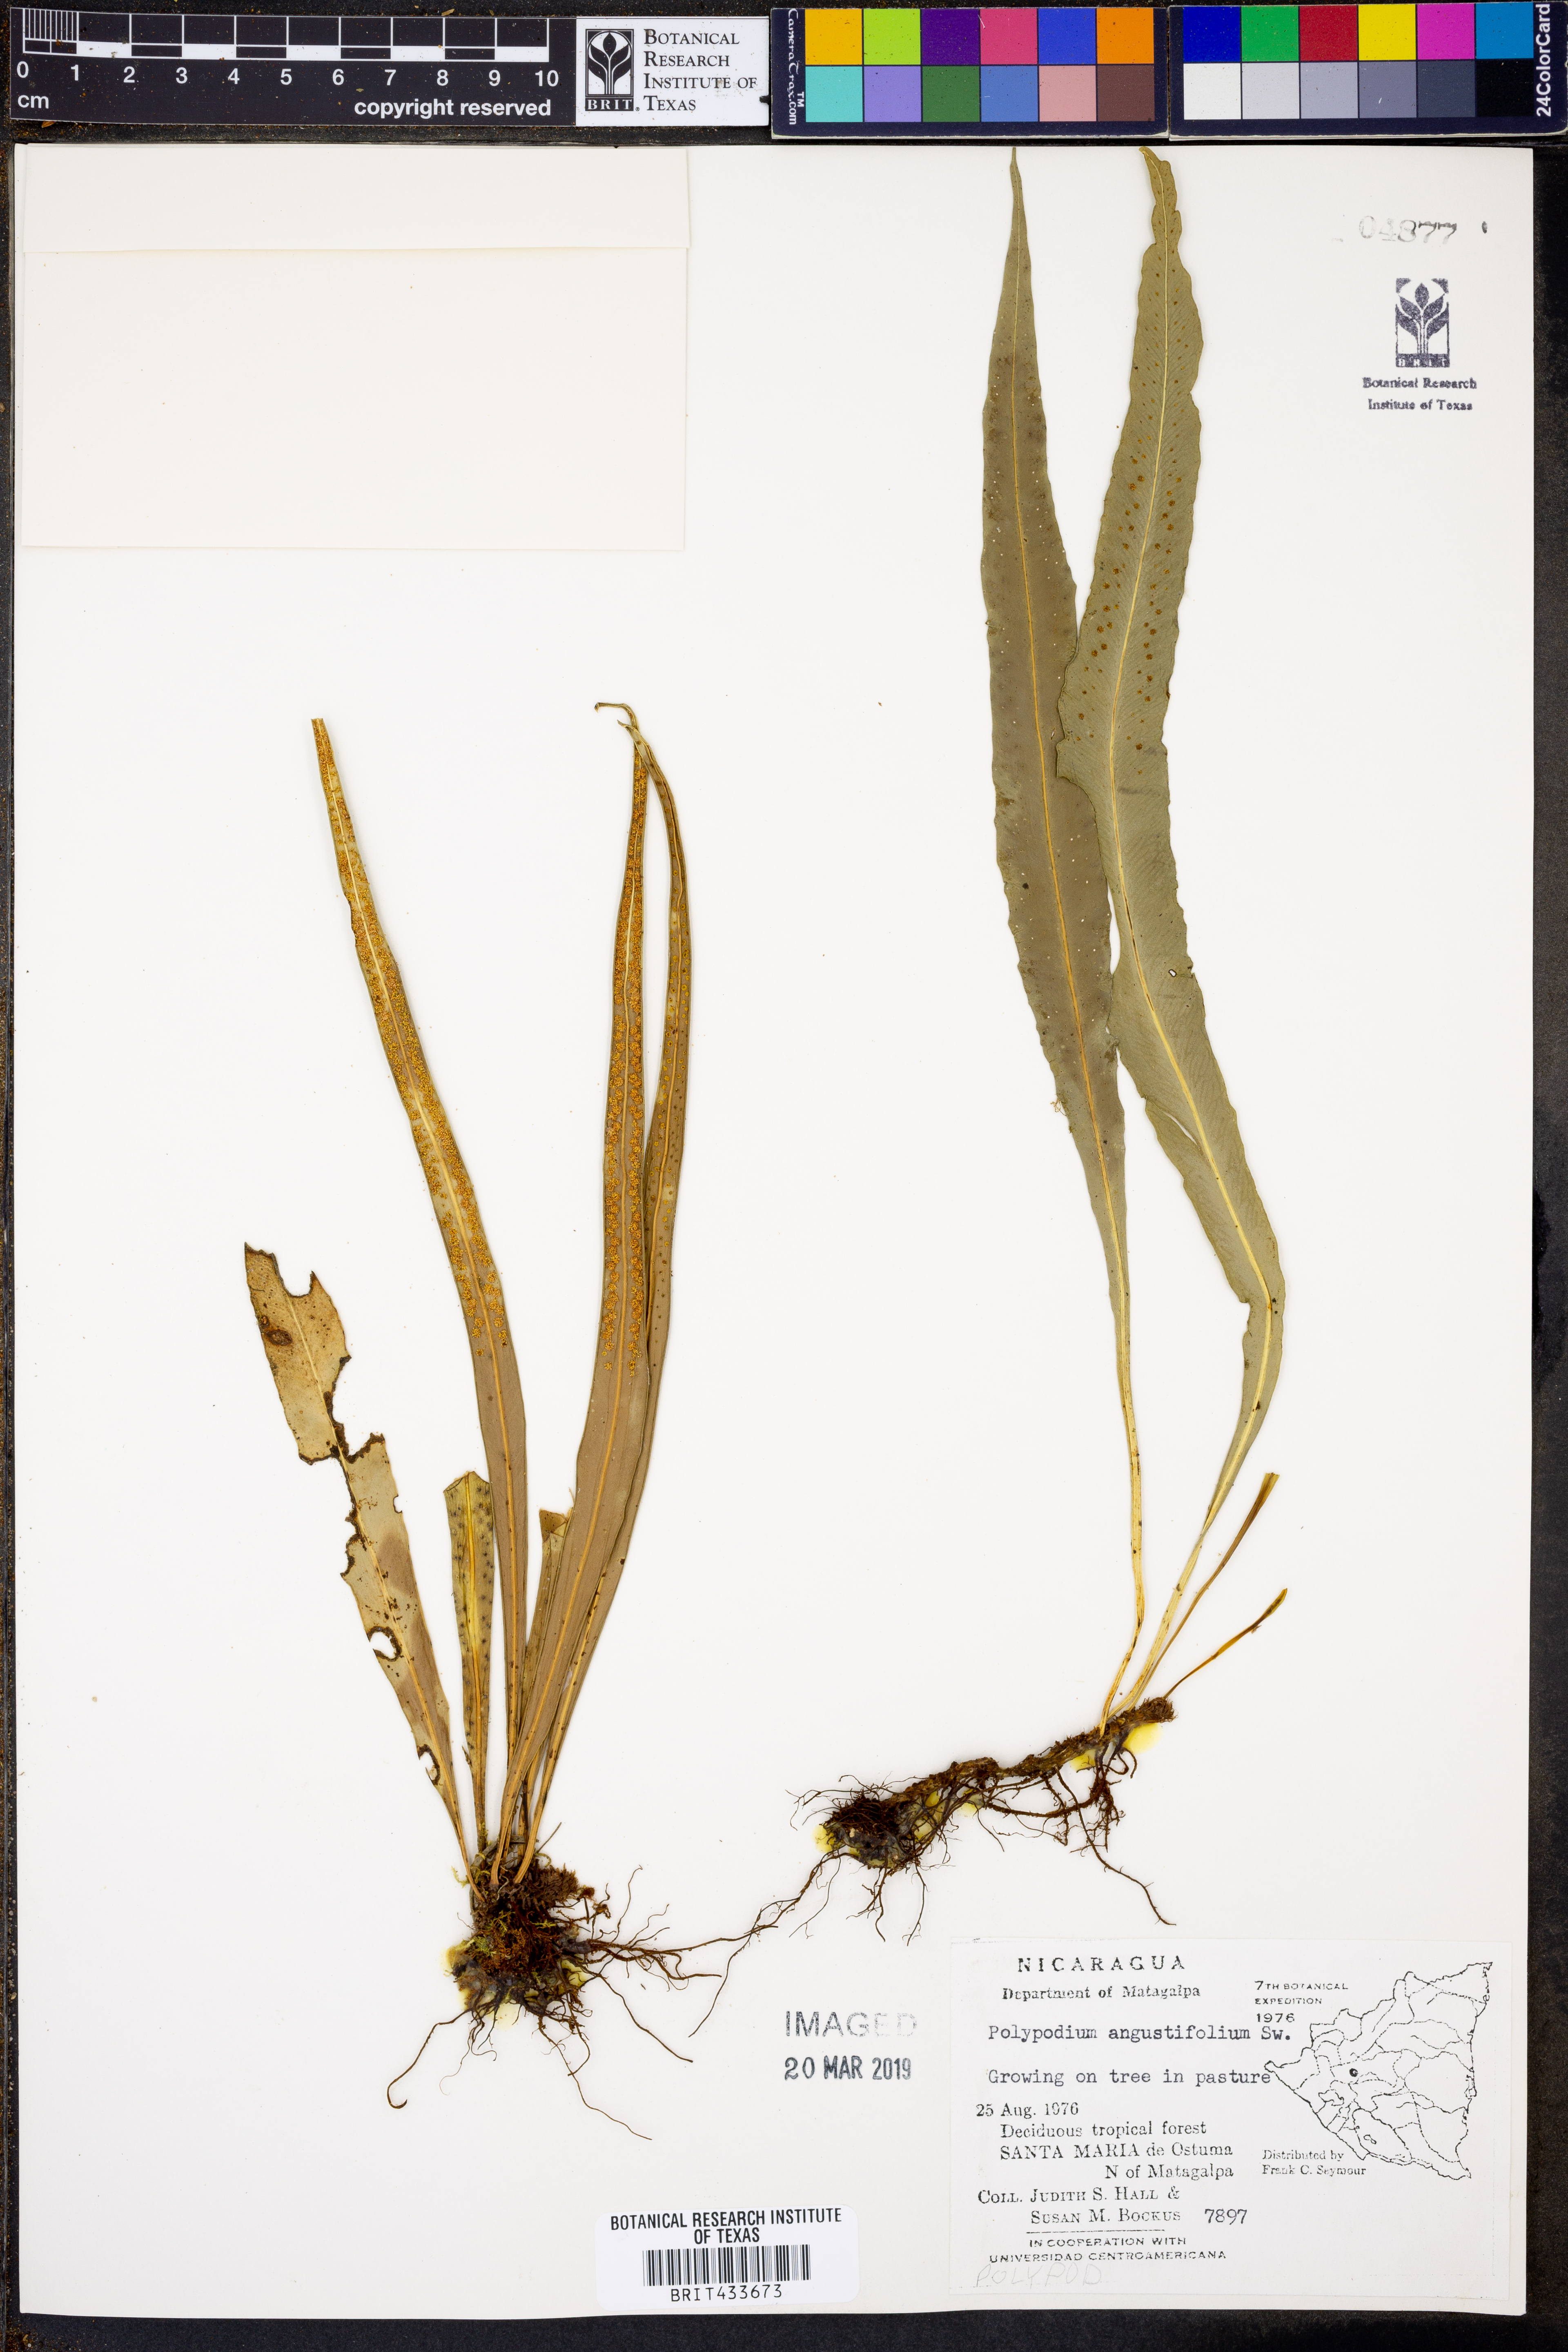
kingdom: Plantae
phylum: Tracheophyta
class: Polypodiopsida
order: Polypodiales
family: Polypodiaceae
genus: Campyloneurum
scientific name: Campyloneurum angustifolium
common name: Narrow-leaf strap fern
